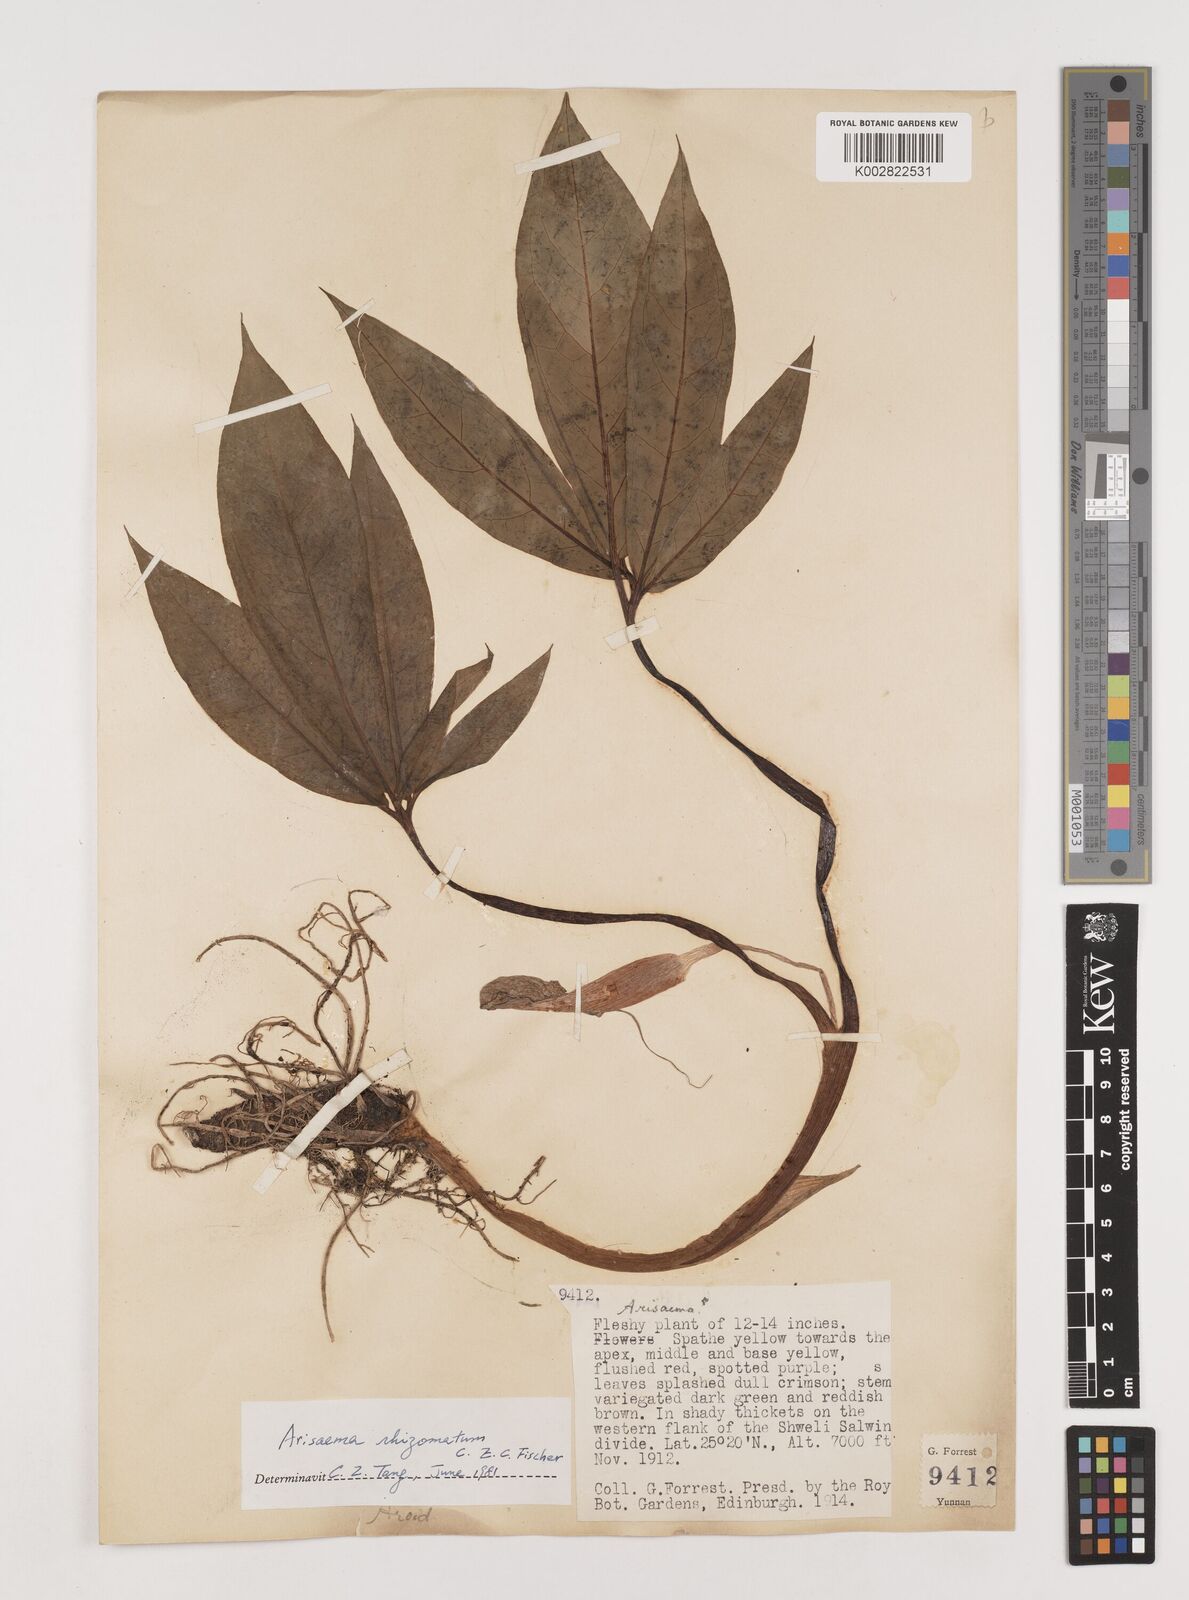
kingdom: Plantae
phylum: Tracheophyta
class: Liliopsida
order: Alismatales
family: Araceae
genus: Arisaema
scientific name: Arisaema decipiens
